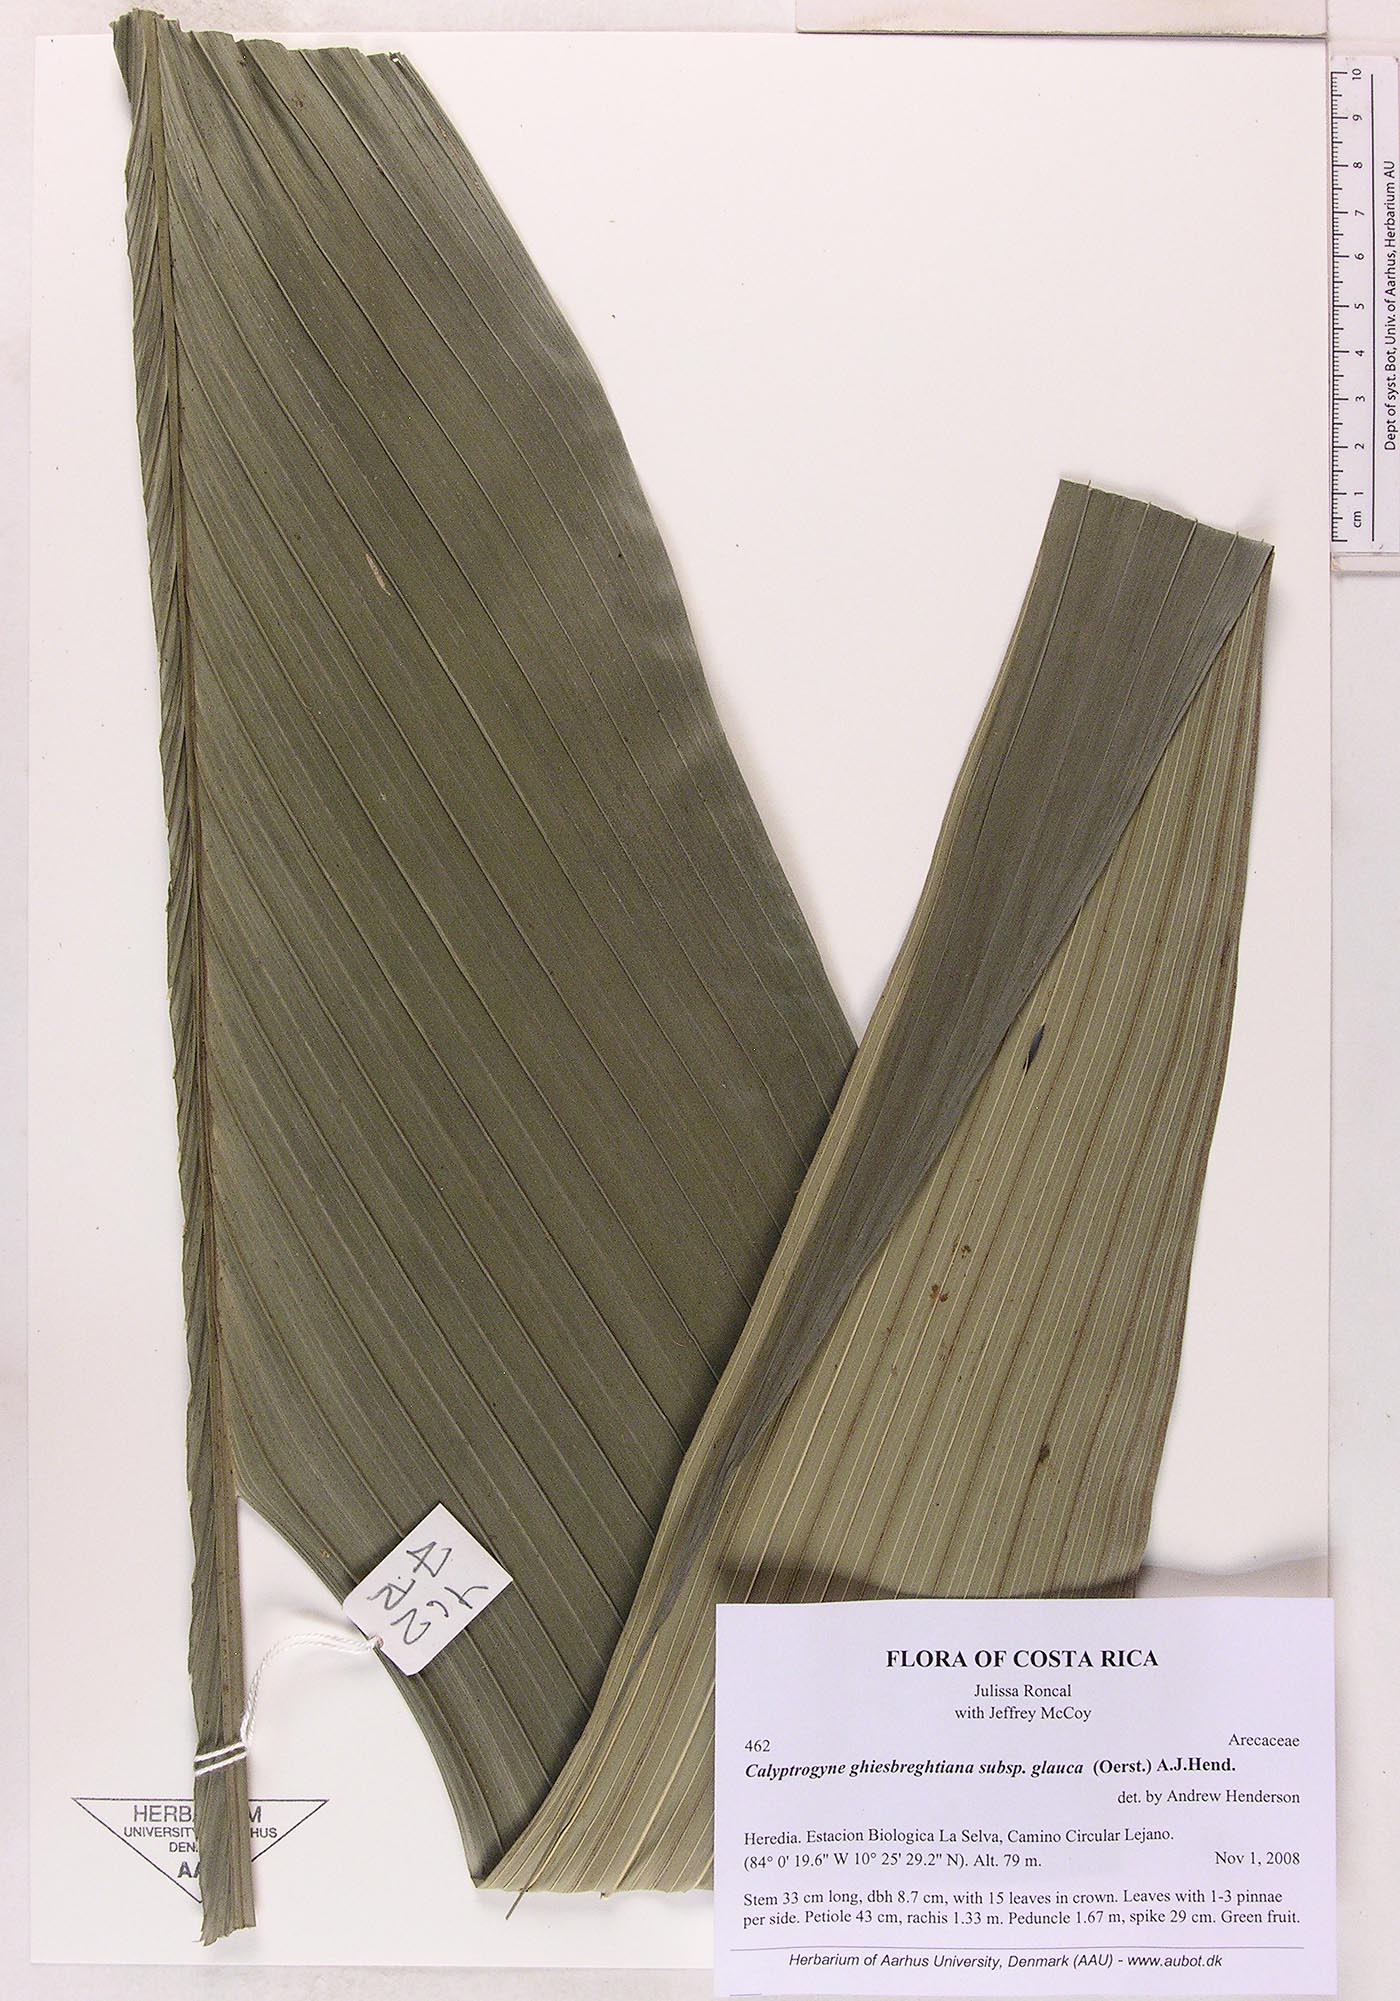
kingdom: Plantae
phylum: Tracheophyta
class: Liliopsida
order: Arecales
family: Arecaceae
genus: Calyptrogyne
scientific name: Calyptrogyne ghiesbreghtiana
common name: Coligallo
